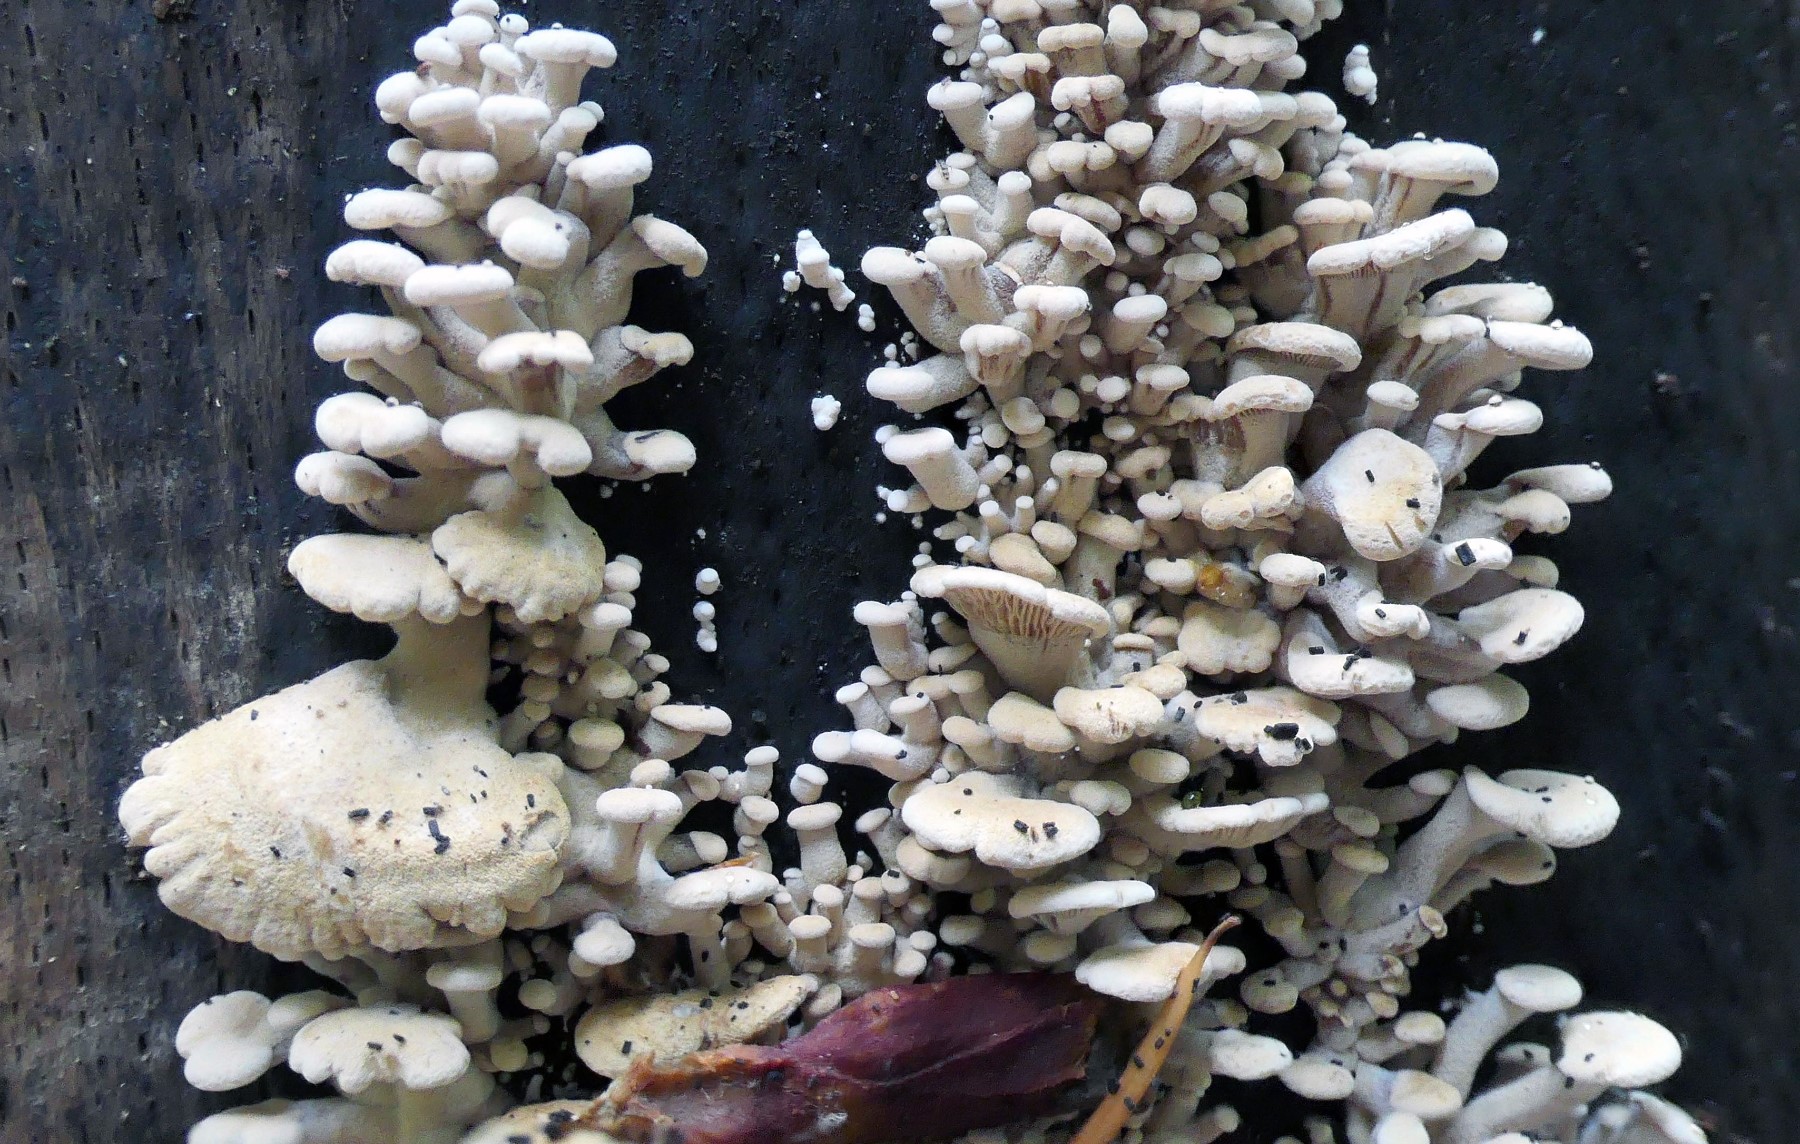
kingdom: Fungi
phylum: Basidiomycota
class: Agaricomycetes
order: Agaricales
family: Mycenaceae
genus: Panellus
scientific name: Panellus stipticus
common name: kliddet epaulethat
